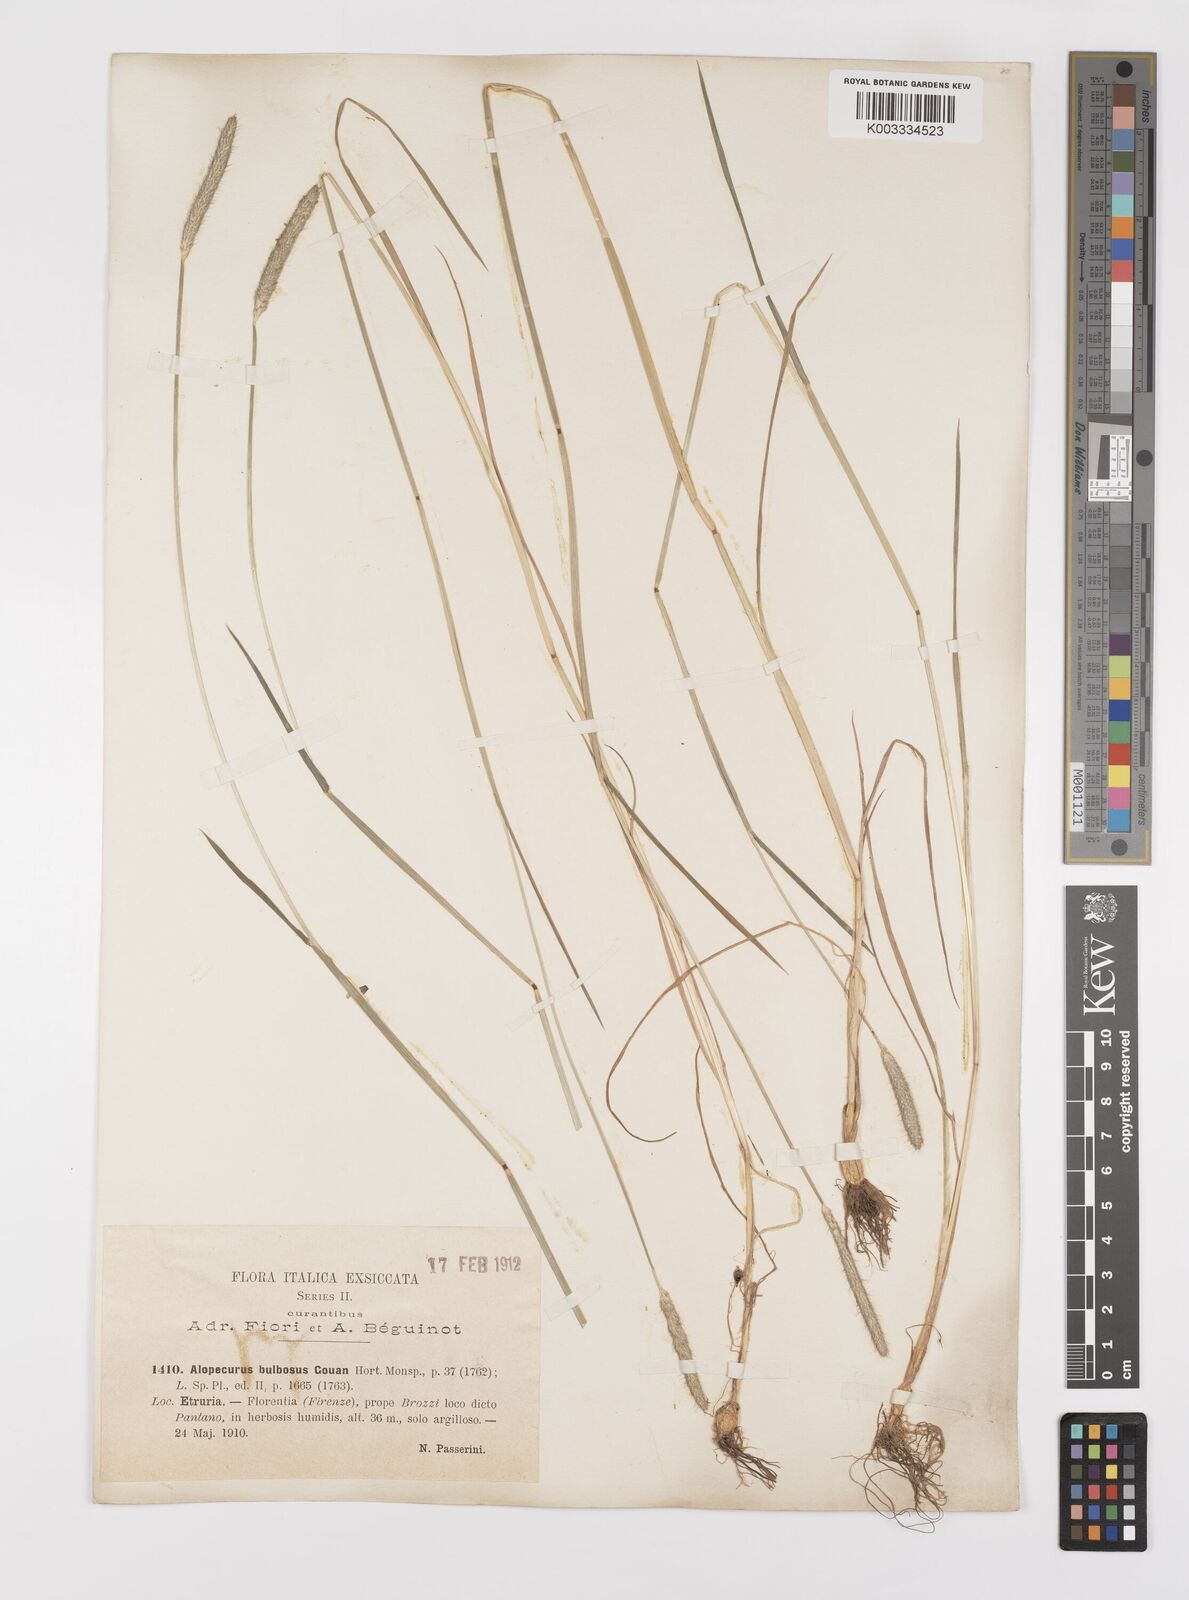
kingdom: Plantae
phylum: Tracheophyta
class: Liliopsida
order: Poales
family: Poaceae
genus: Alopecurus
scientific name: Alopecurus bulbosus
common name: Bulbous foxtail
